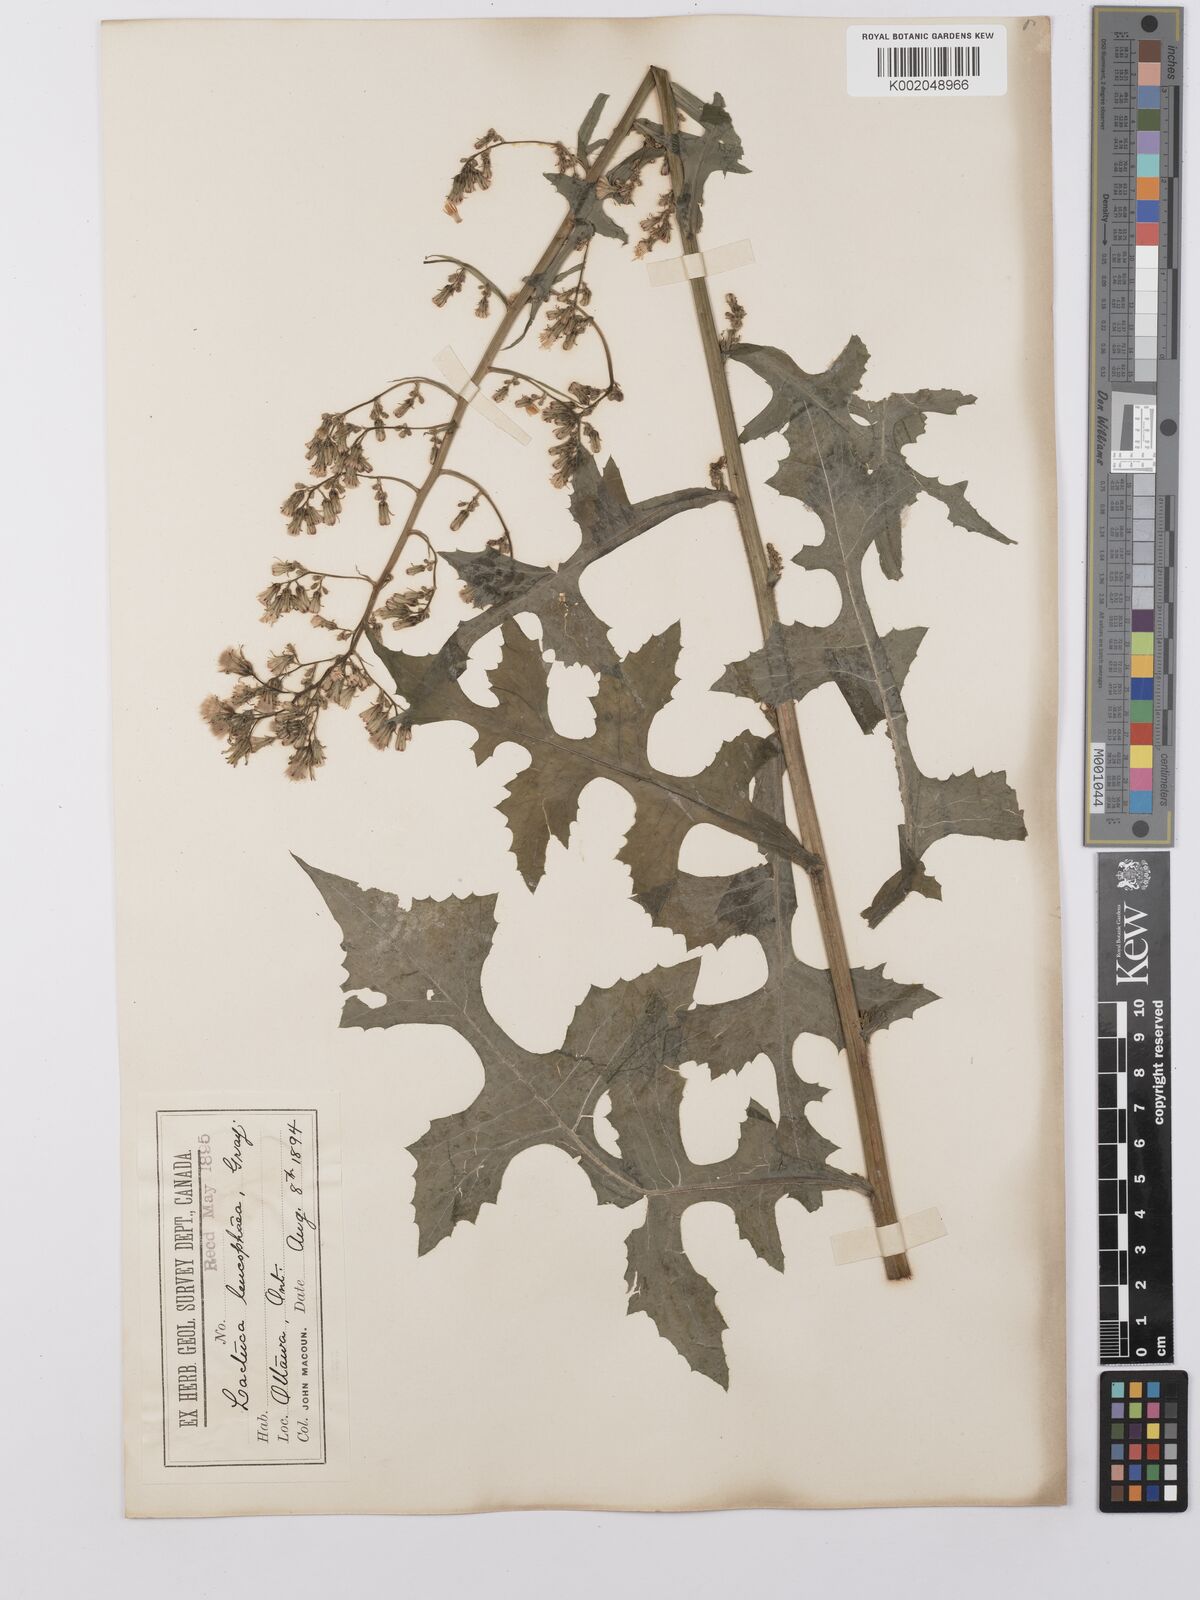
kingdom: Plantae
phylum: Tracheophyta
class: Magnoliopsida
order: Asterales
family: Asteraceae
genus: Lactuca
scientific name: Lactuca
